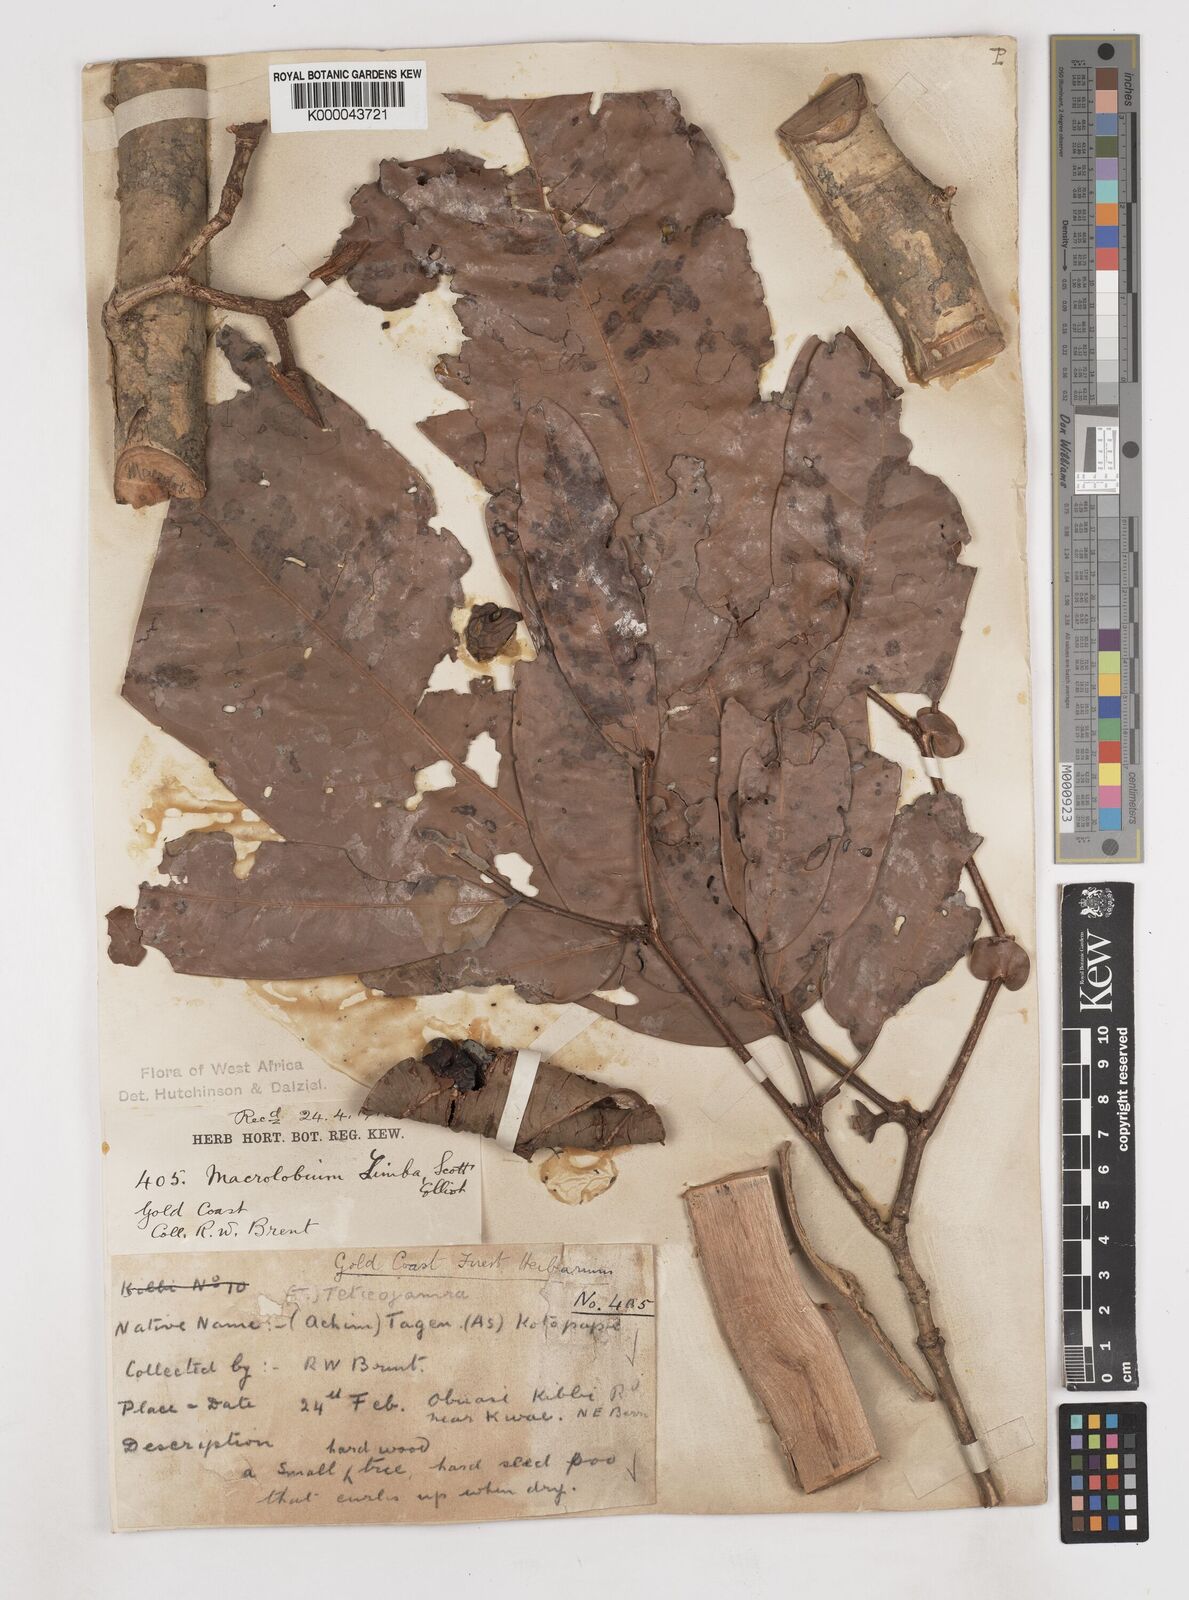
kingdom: Plantae
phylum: Tracheophyta
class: Magnoliopsida
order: Fabales
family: Fabaceae
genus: Gilbertiodendron
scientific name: Gilbertiodendron
